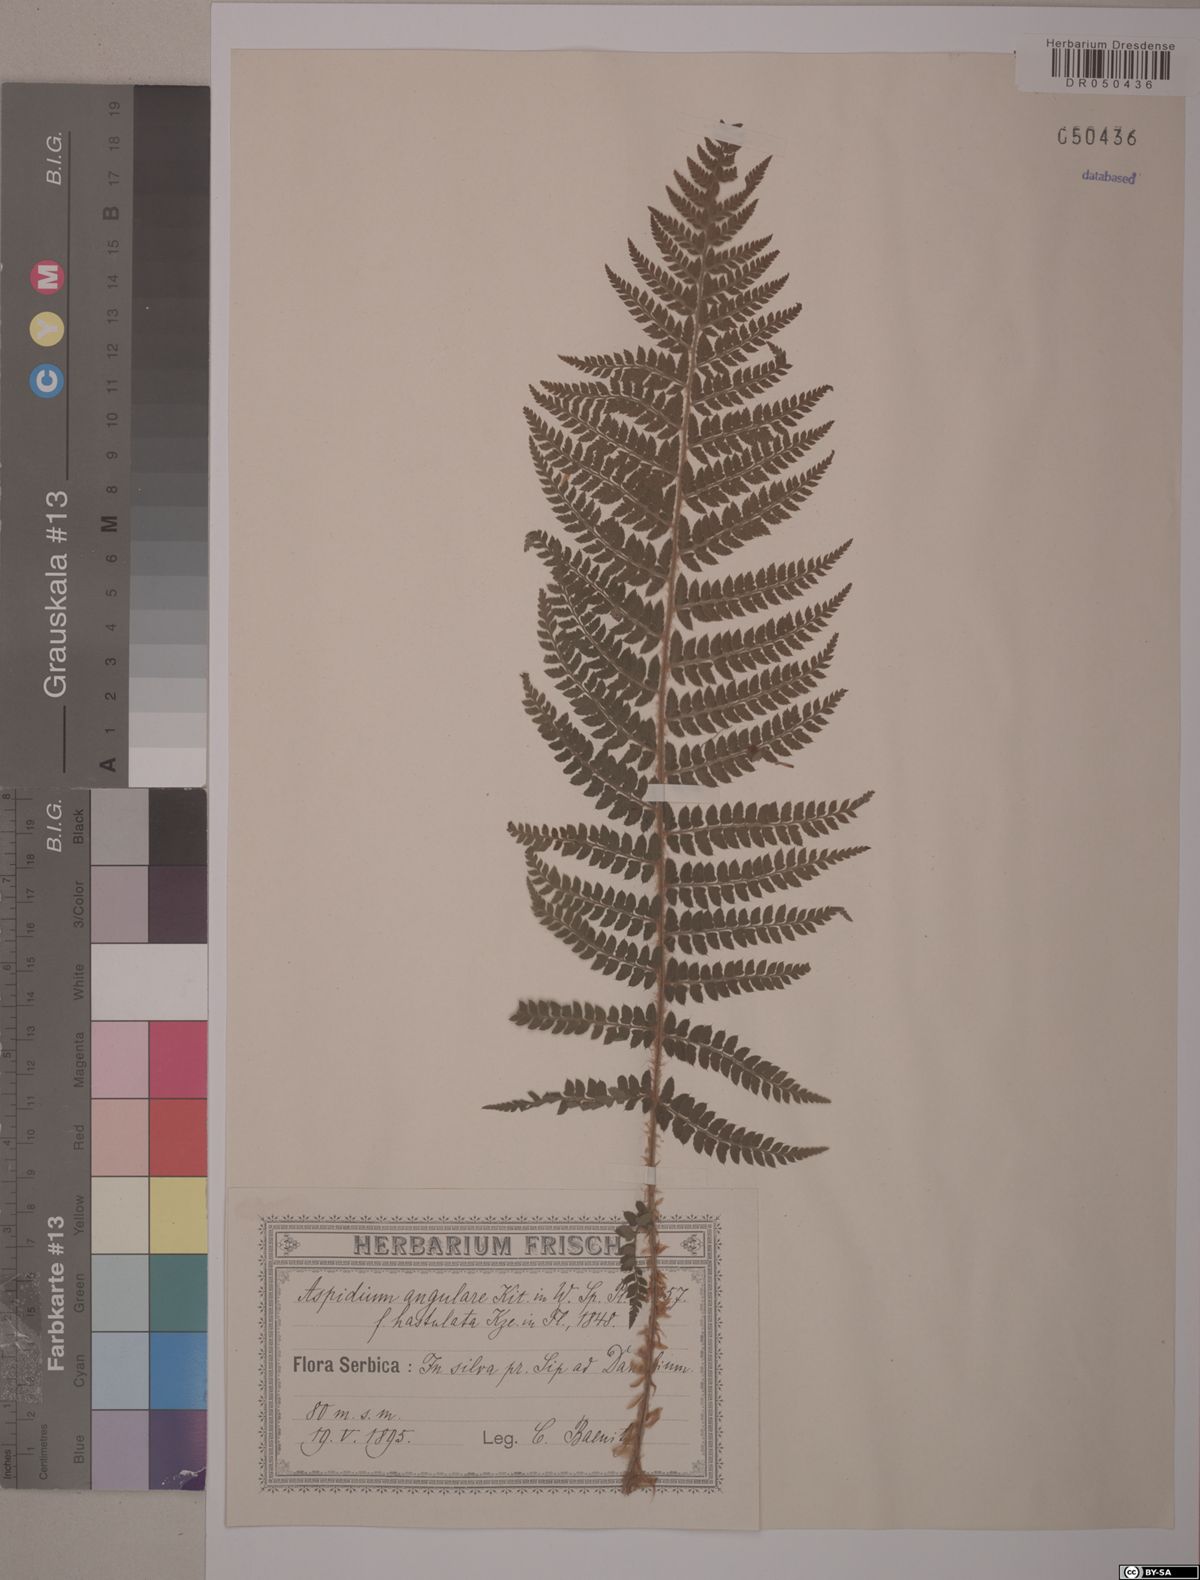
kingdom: Plantae
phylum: Tracheophyta
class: Polypodiopsida
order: Polypodiales
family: Dryopteridaceae
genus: Polystichum
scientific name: Polystichum setiferum
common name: Soft shield-fern
